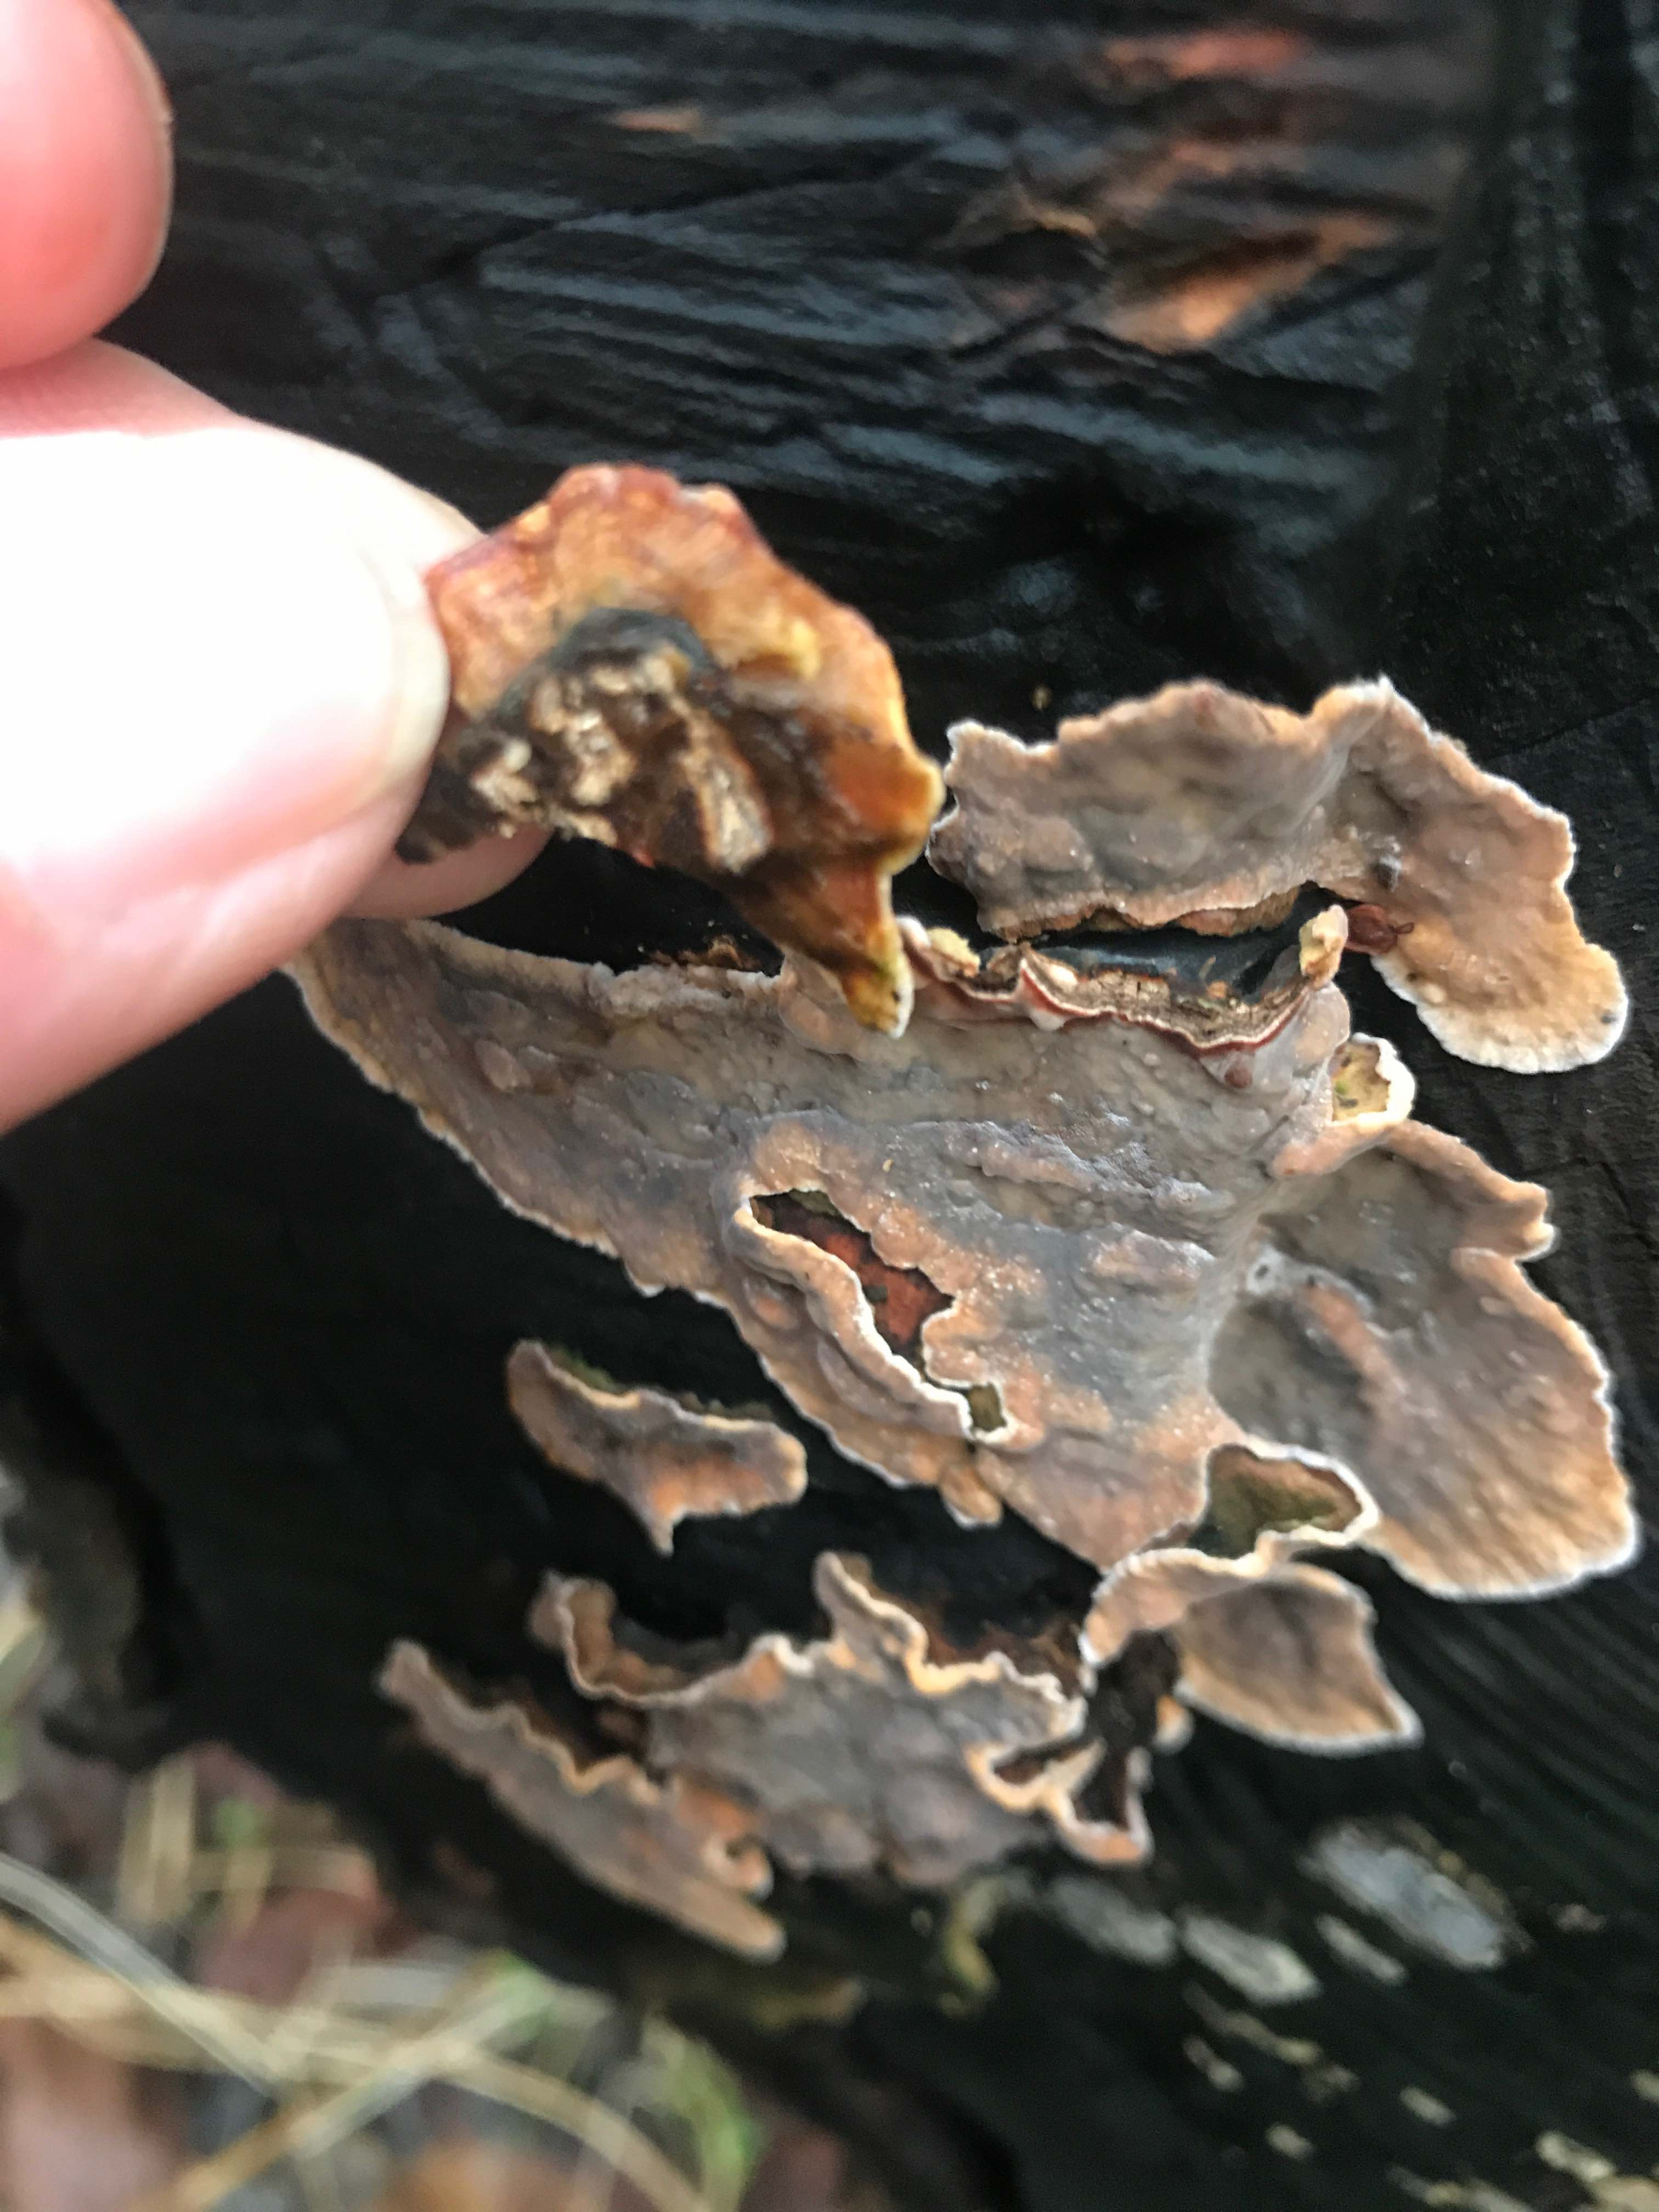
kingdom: Fungi
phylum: Basidiomycota
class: Agaricomycetes
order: Russulales
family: Stereaceae
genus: Stereum
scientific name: Stereum
